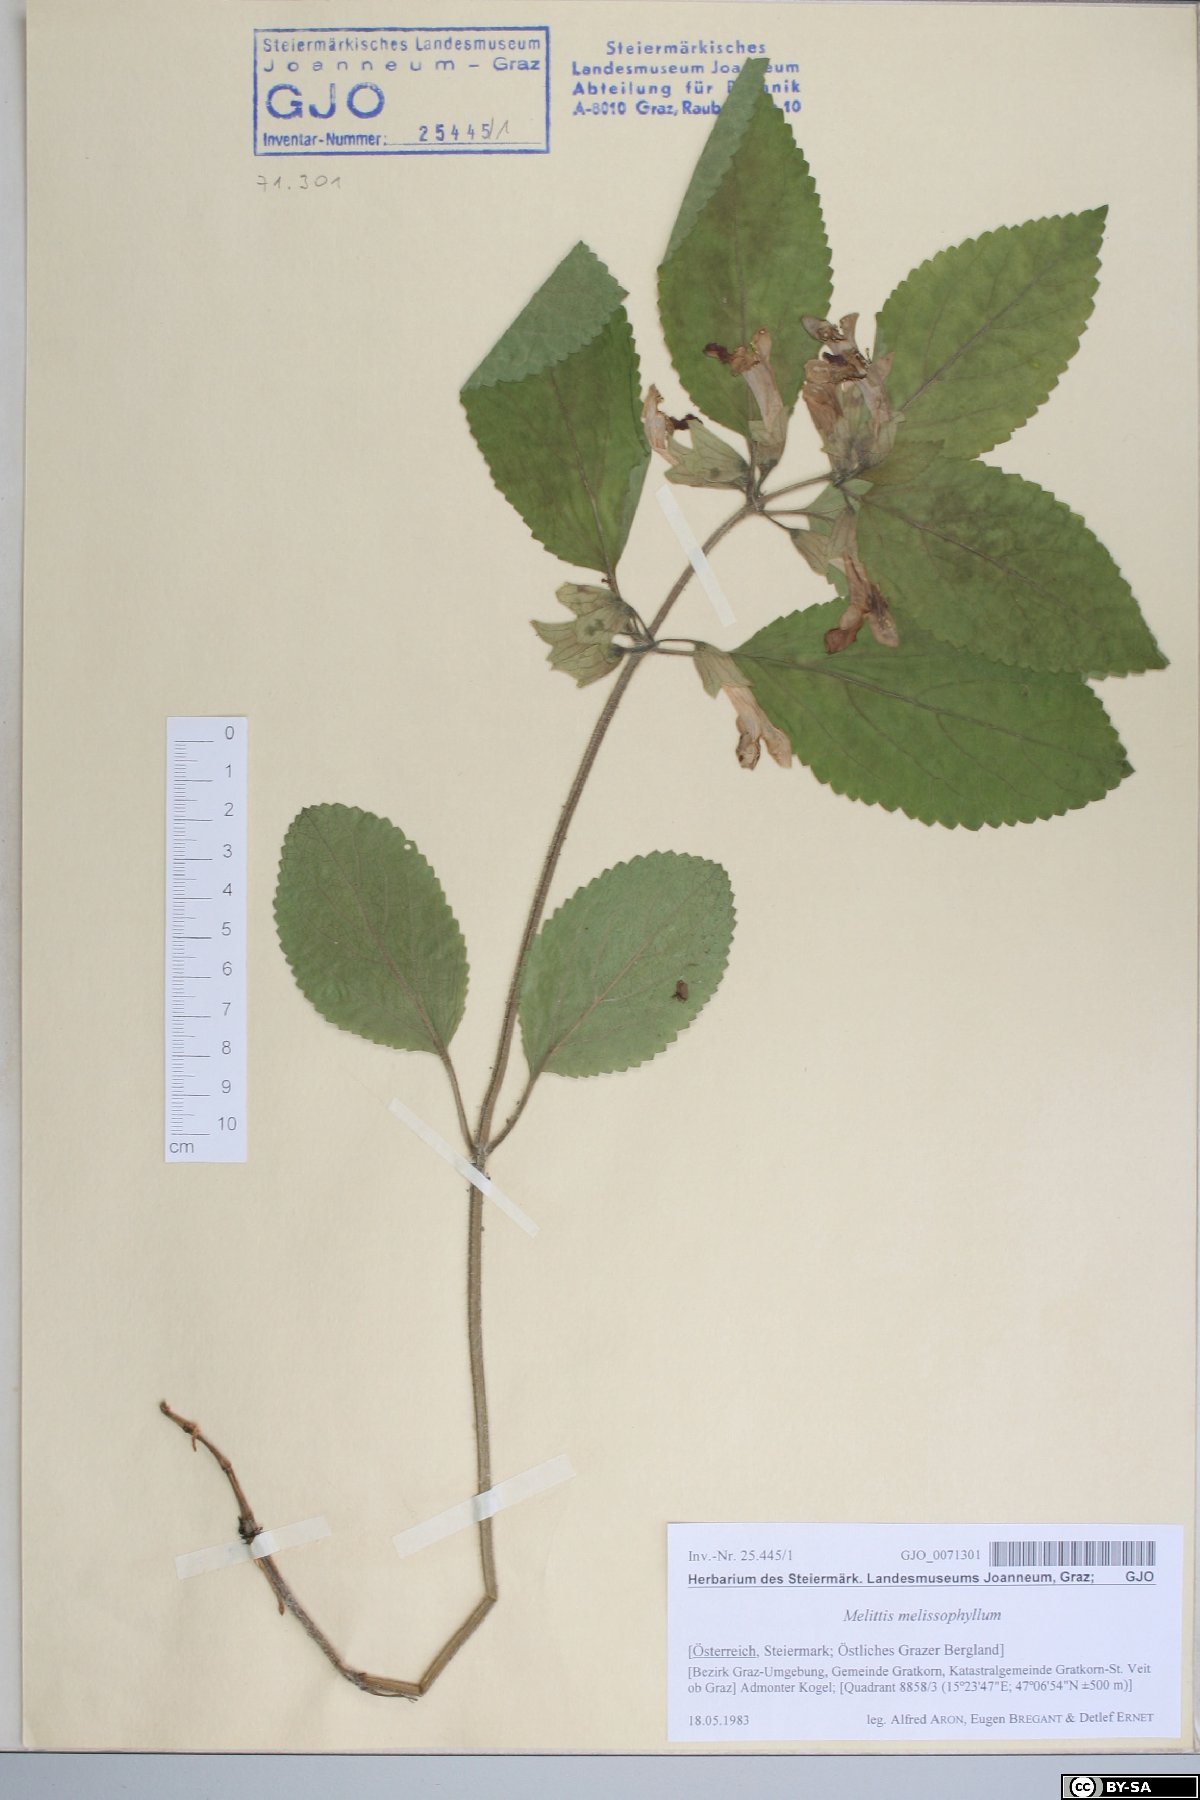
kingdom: Plantae
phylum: Tracheophyta
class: Magnoliopsida
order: Lamiales
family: Lamiaceae
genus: Melittis
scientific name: Melittis melissophyllum
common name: Bastard balm
